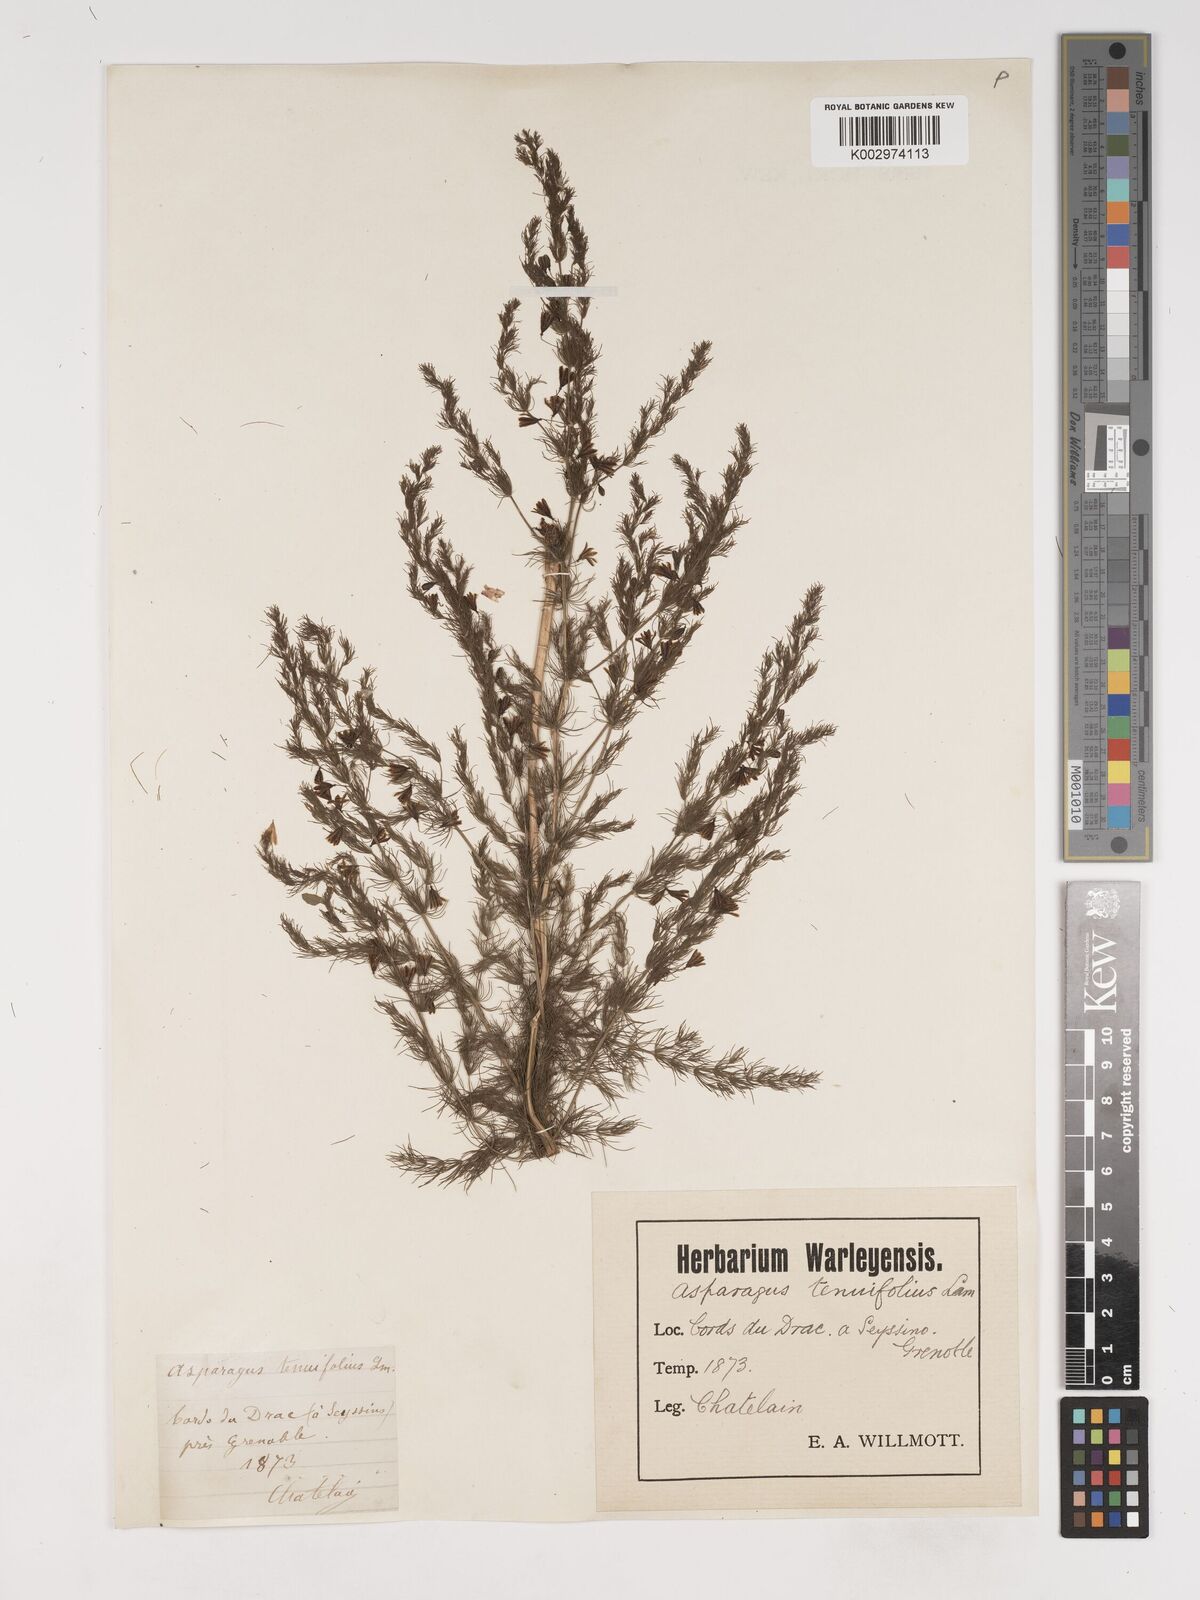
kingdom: Plantae
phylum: Tracheophyta
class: Liliopsida
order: Asparagales
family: Asparagaceae
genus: Asparagus
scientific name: Asparagus tenuifolius
